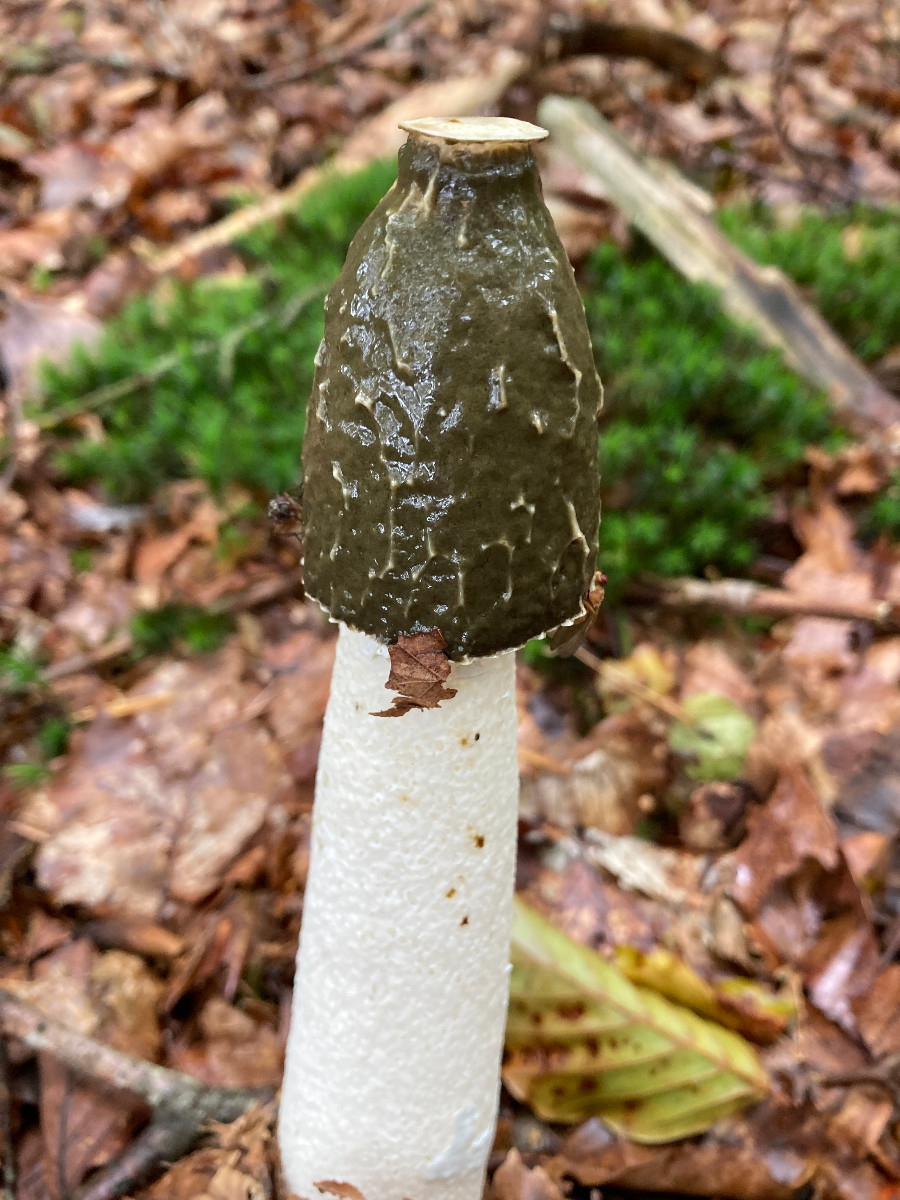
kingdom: Fungi
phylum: Basidiomycota
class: Agaricomycetes
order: Phallales
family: Phallaceae
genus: Phallus
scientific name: Phallus impudicus
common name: almindelig stinksvamp
